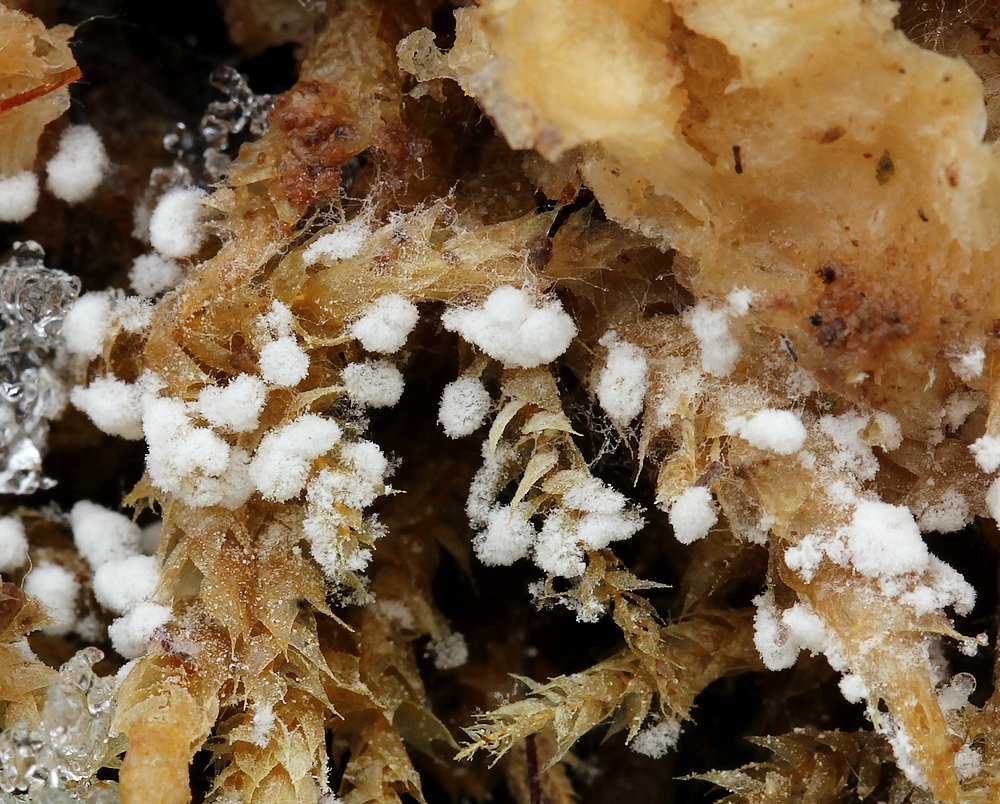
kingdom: Fungi
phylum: Ascomycota
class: Sordariomycetes
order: Hypocreales
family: Hypocreaceae
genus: Hypomyces
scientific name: Hypomyces aurantius
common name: almindelig snylteskorpe
